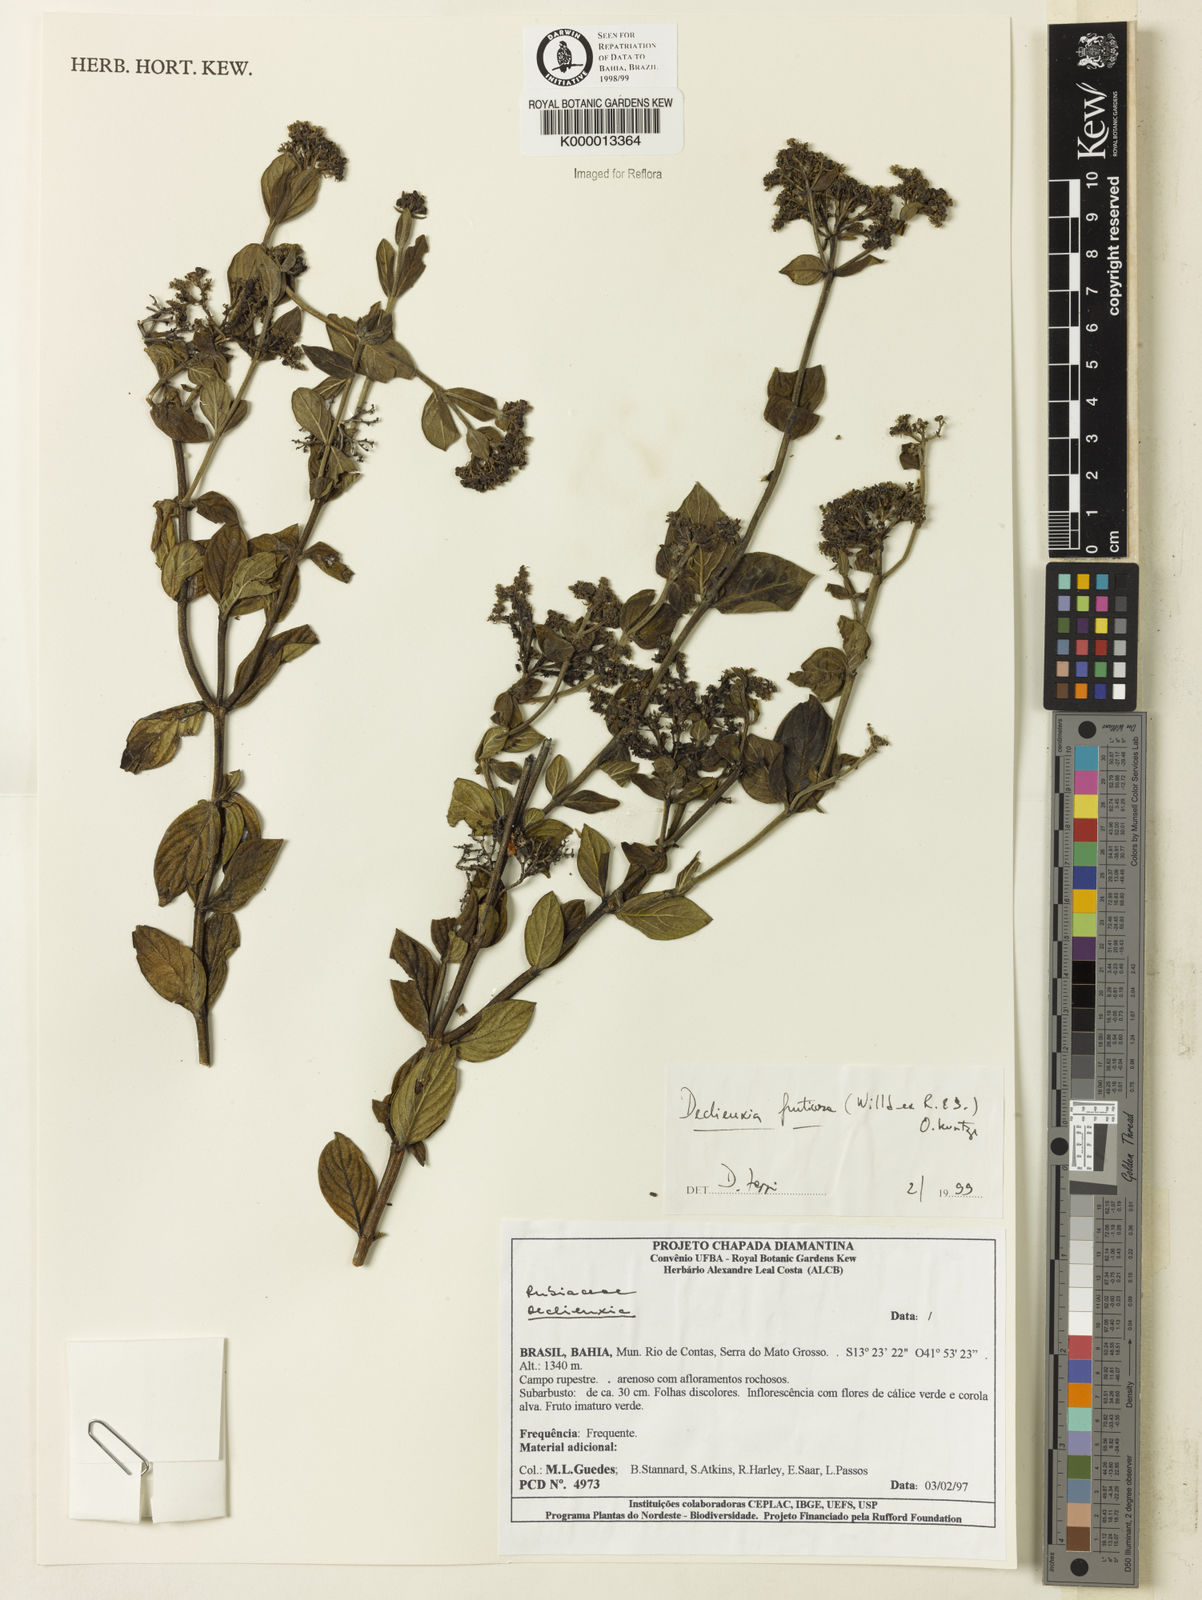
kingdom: Plantae
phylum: Tracheophyta
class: Magnoliopsida
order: Gentianales
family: Rubiaceae
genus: Declieuxia
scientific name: Declieuxia fruticosa
